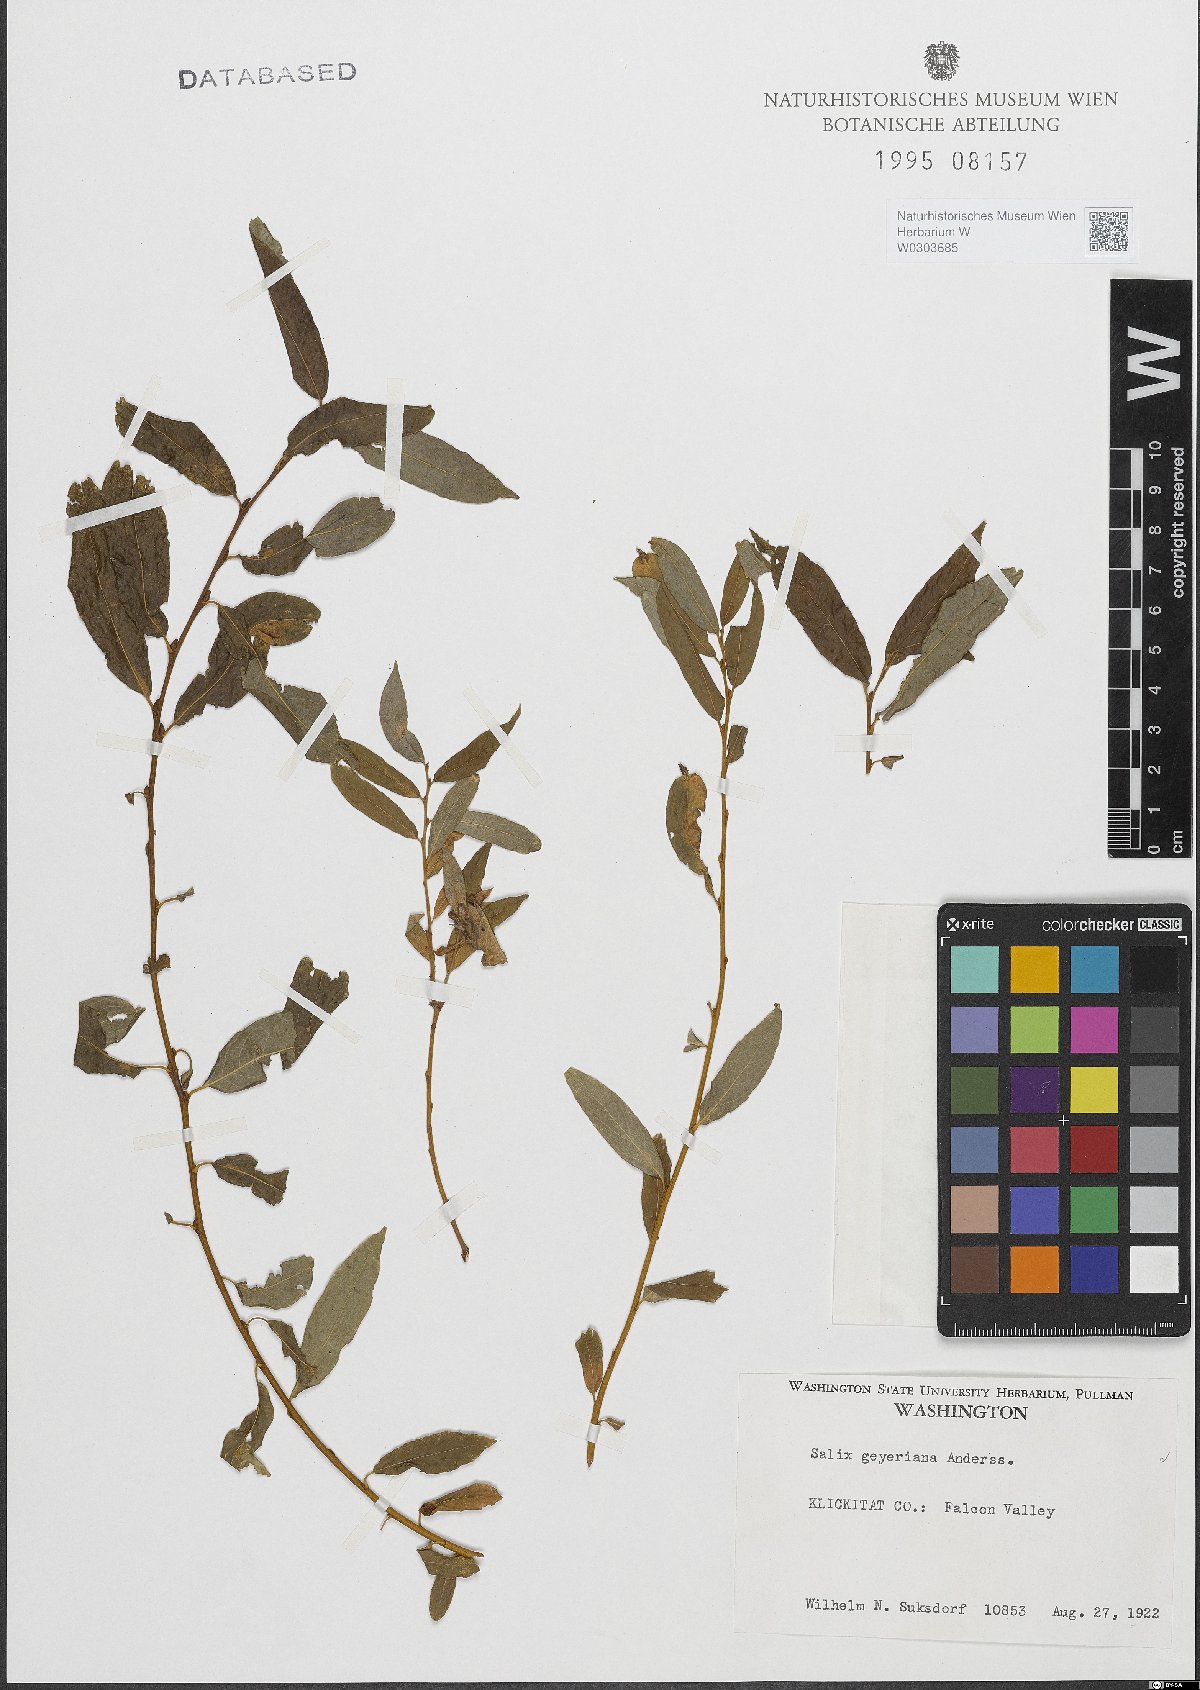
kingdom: Plantae
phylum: Tracheophyta
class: Magnoliopsida
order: Malpighiales
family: Salicaceae
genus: Salix
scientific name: Salix geyeriana
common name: Geyer's willow
